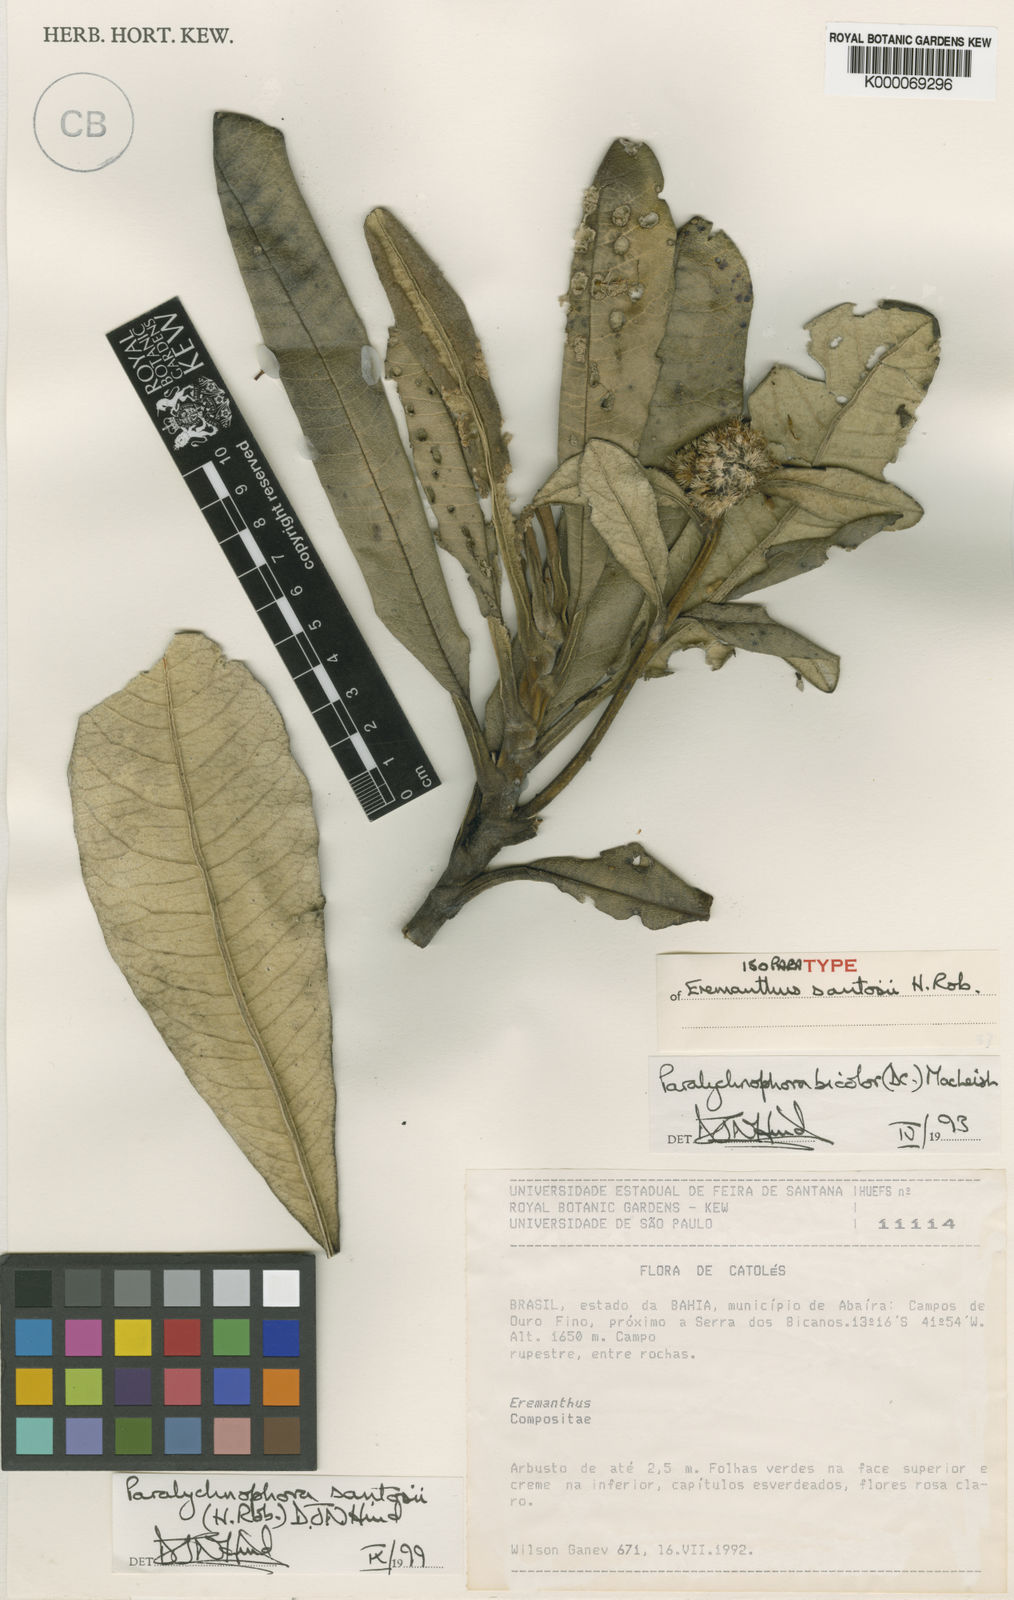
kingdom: Plantae
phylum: Tracheophyta
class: Magnoliopsida
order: Asterales
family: Asteraceae
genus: Paralychnophora
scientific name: Paralychnophora santosii
